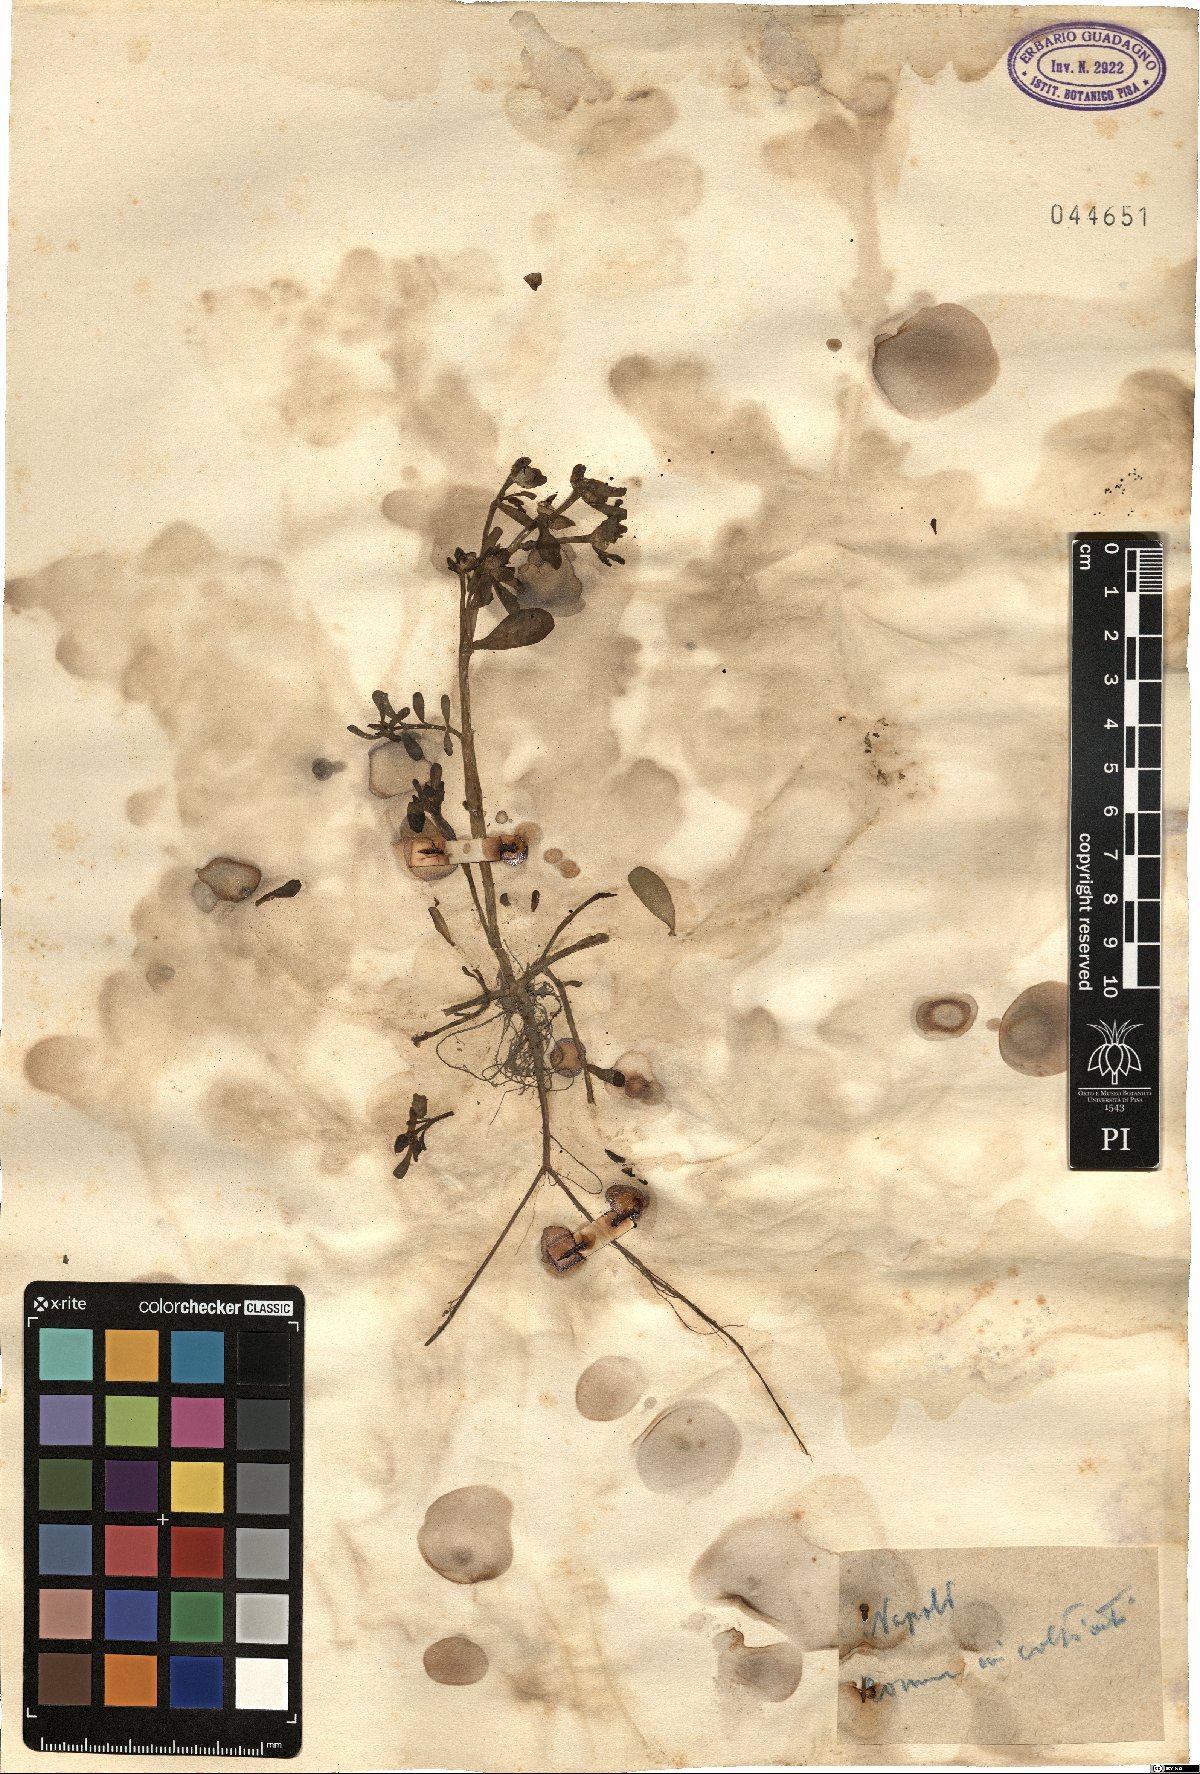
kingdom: Plantae
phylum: Tracheophyta
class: Magnoliopsida
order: Caryophyllales
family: Portulacaceae
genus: Portulaca
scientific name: Portulaca
